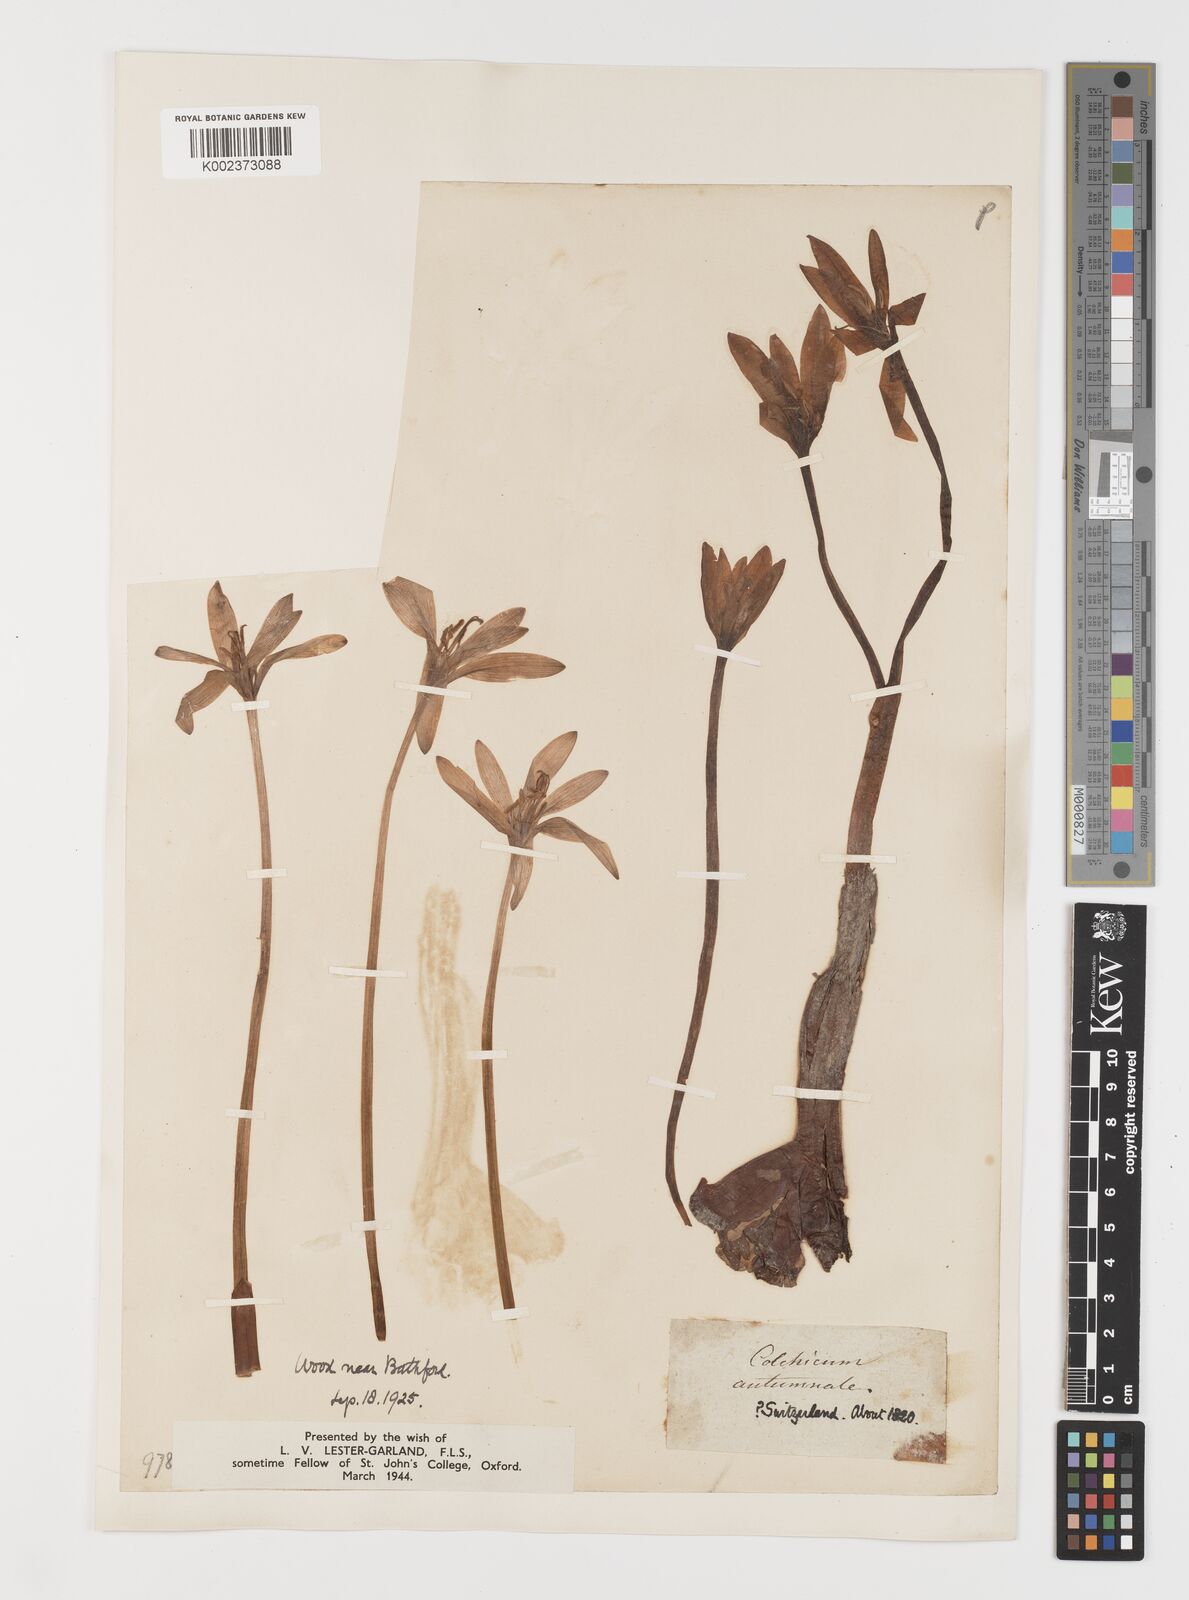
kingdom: Plantae
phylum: Tracheophyta
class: Liliopsida
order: Liliales
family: Colchicaceae
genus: Colchicum
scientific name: Colchicum autumnale
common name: Autumn crocus
